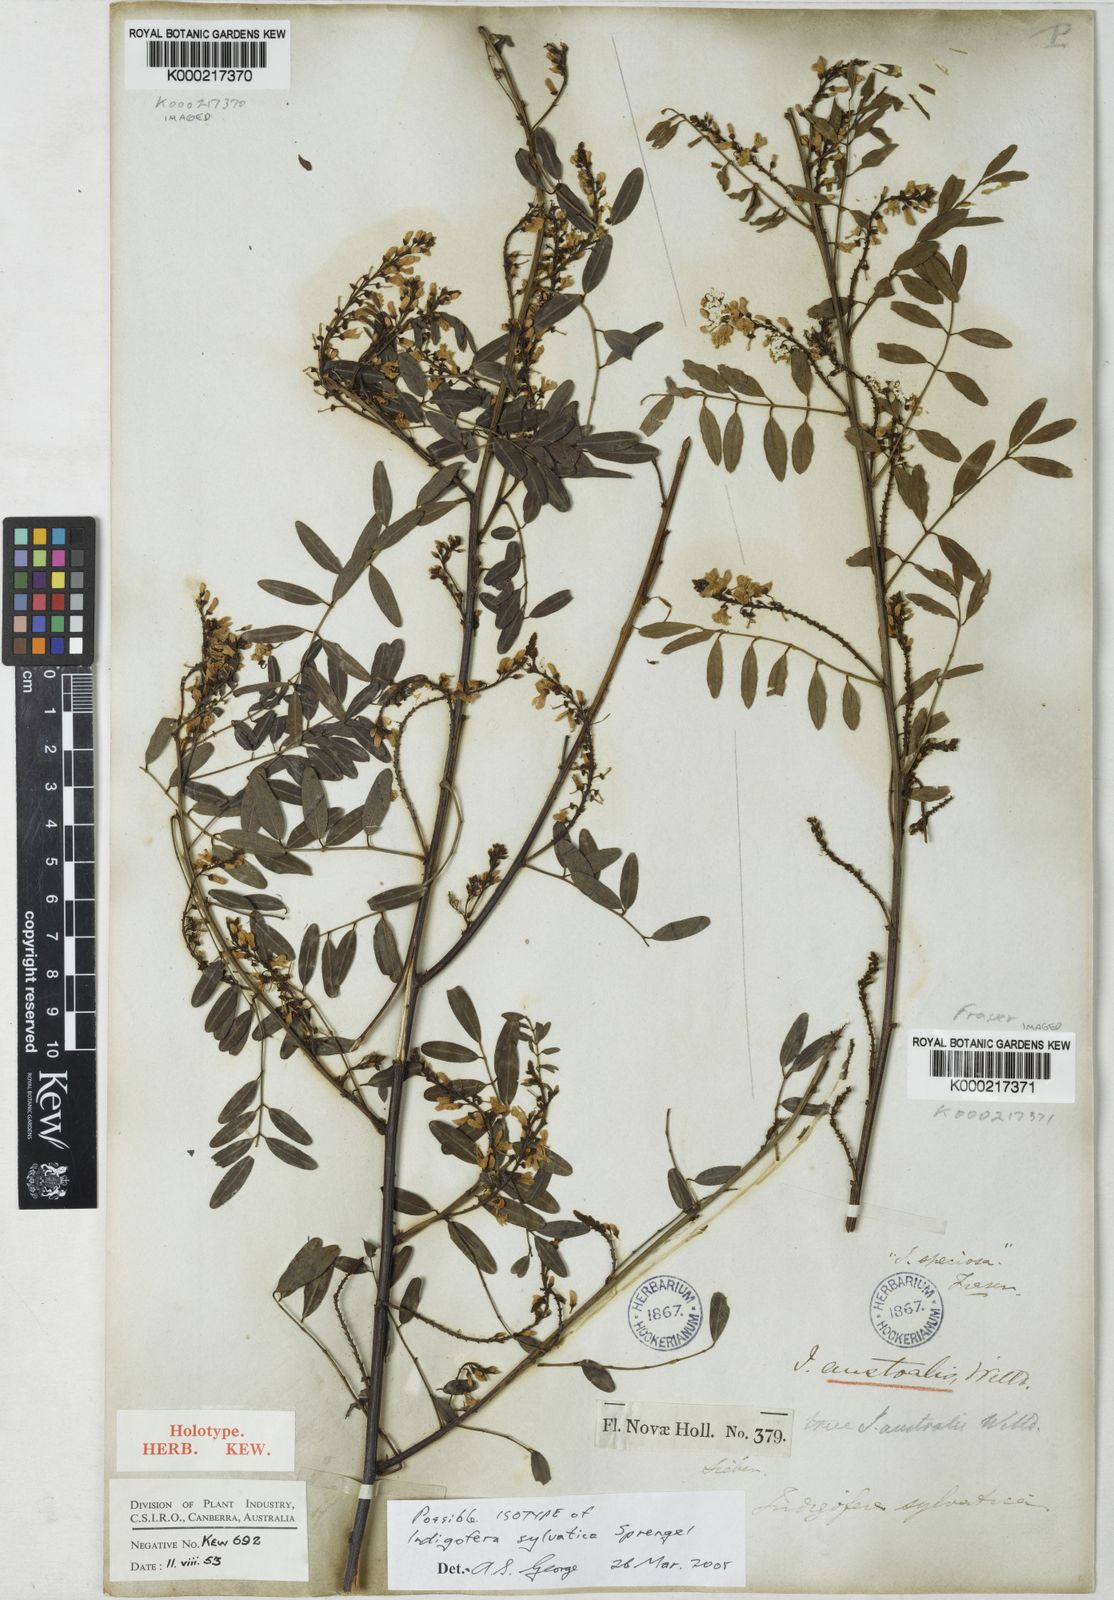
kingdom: Plantae
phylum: Tracheophyta
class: Magnoliopsida
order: Fabales
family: Fabaceae
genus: Indigofera
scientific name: Indigofera australis
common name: Australian indigo
